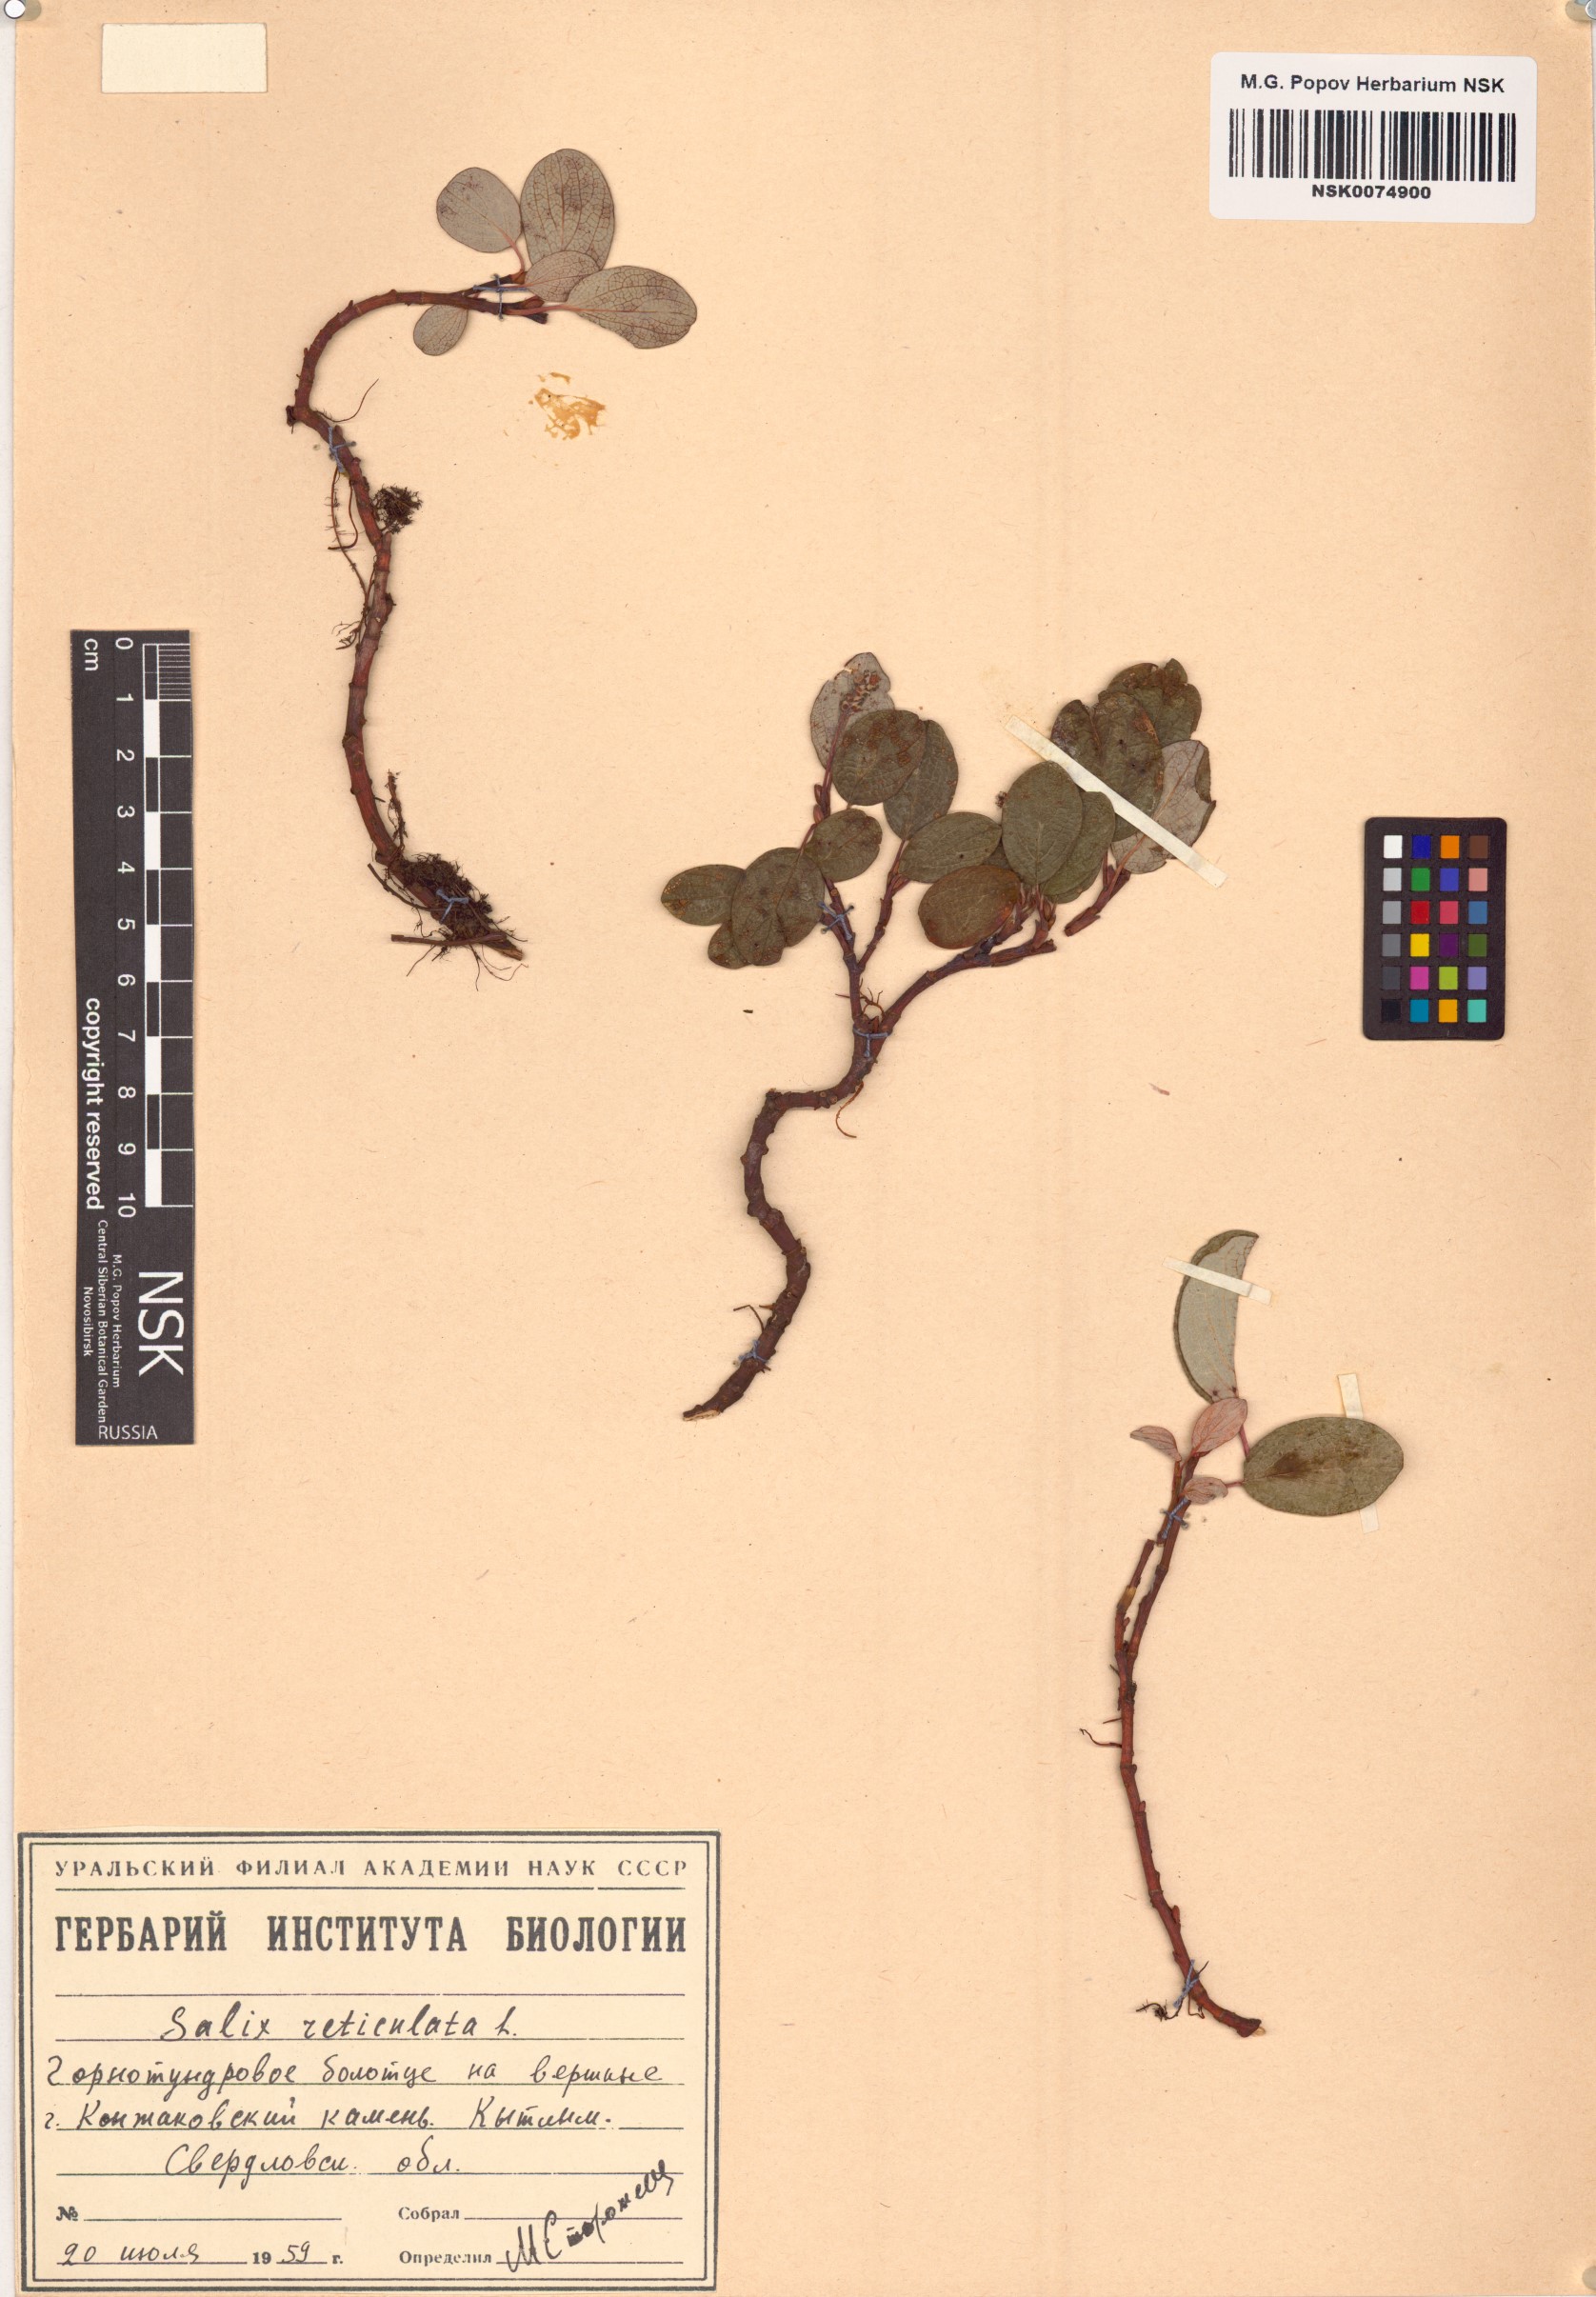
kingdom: Plantae
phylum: Tracheophyta
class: Magnoliopsida
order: Malpighiales
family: Salicaceae
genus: Salix
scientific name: Salix reticulata
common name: Net-leaved willow
